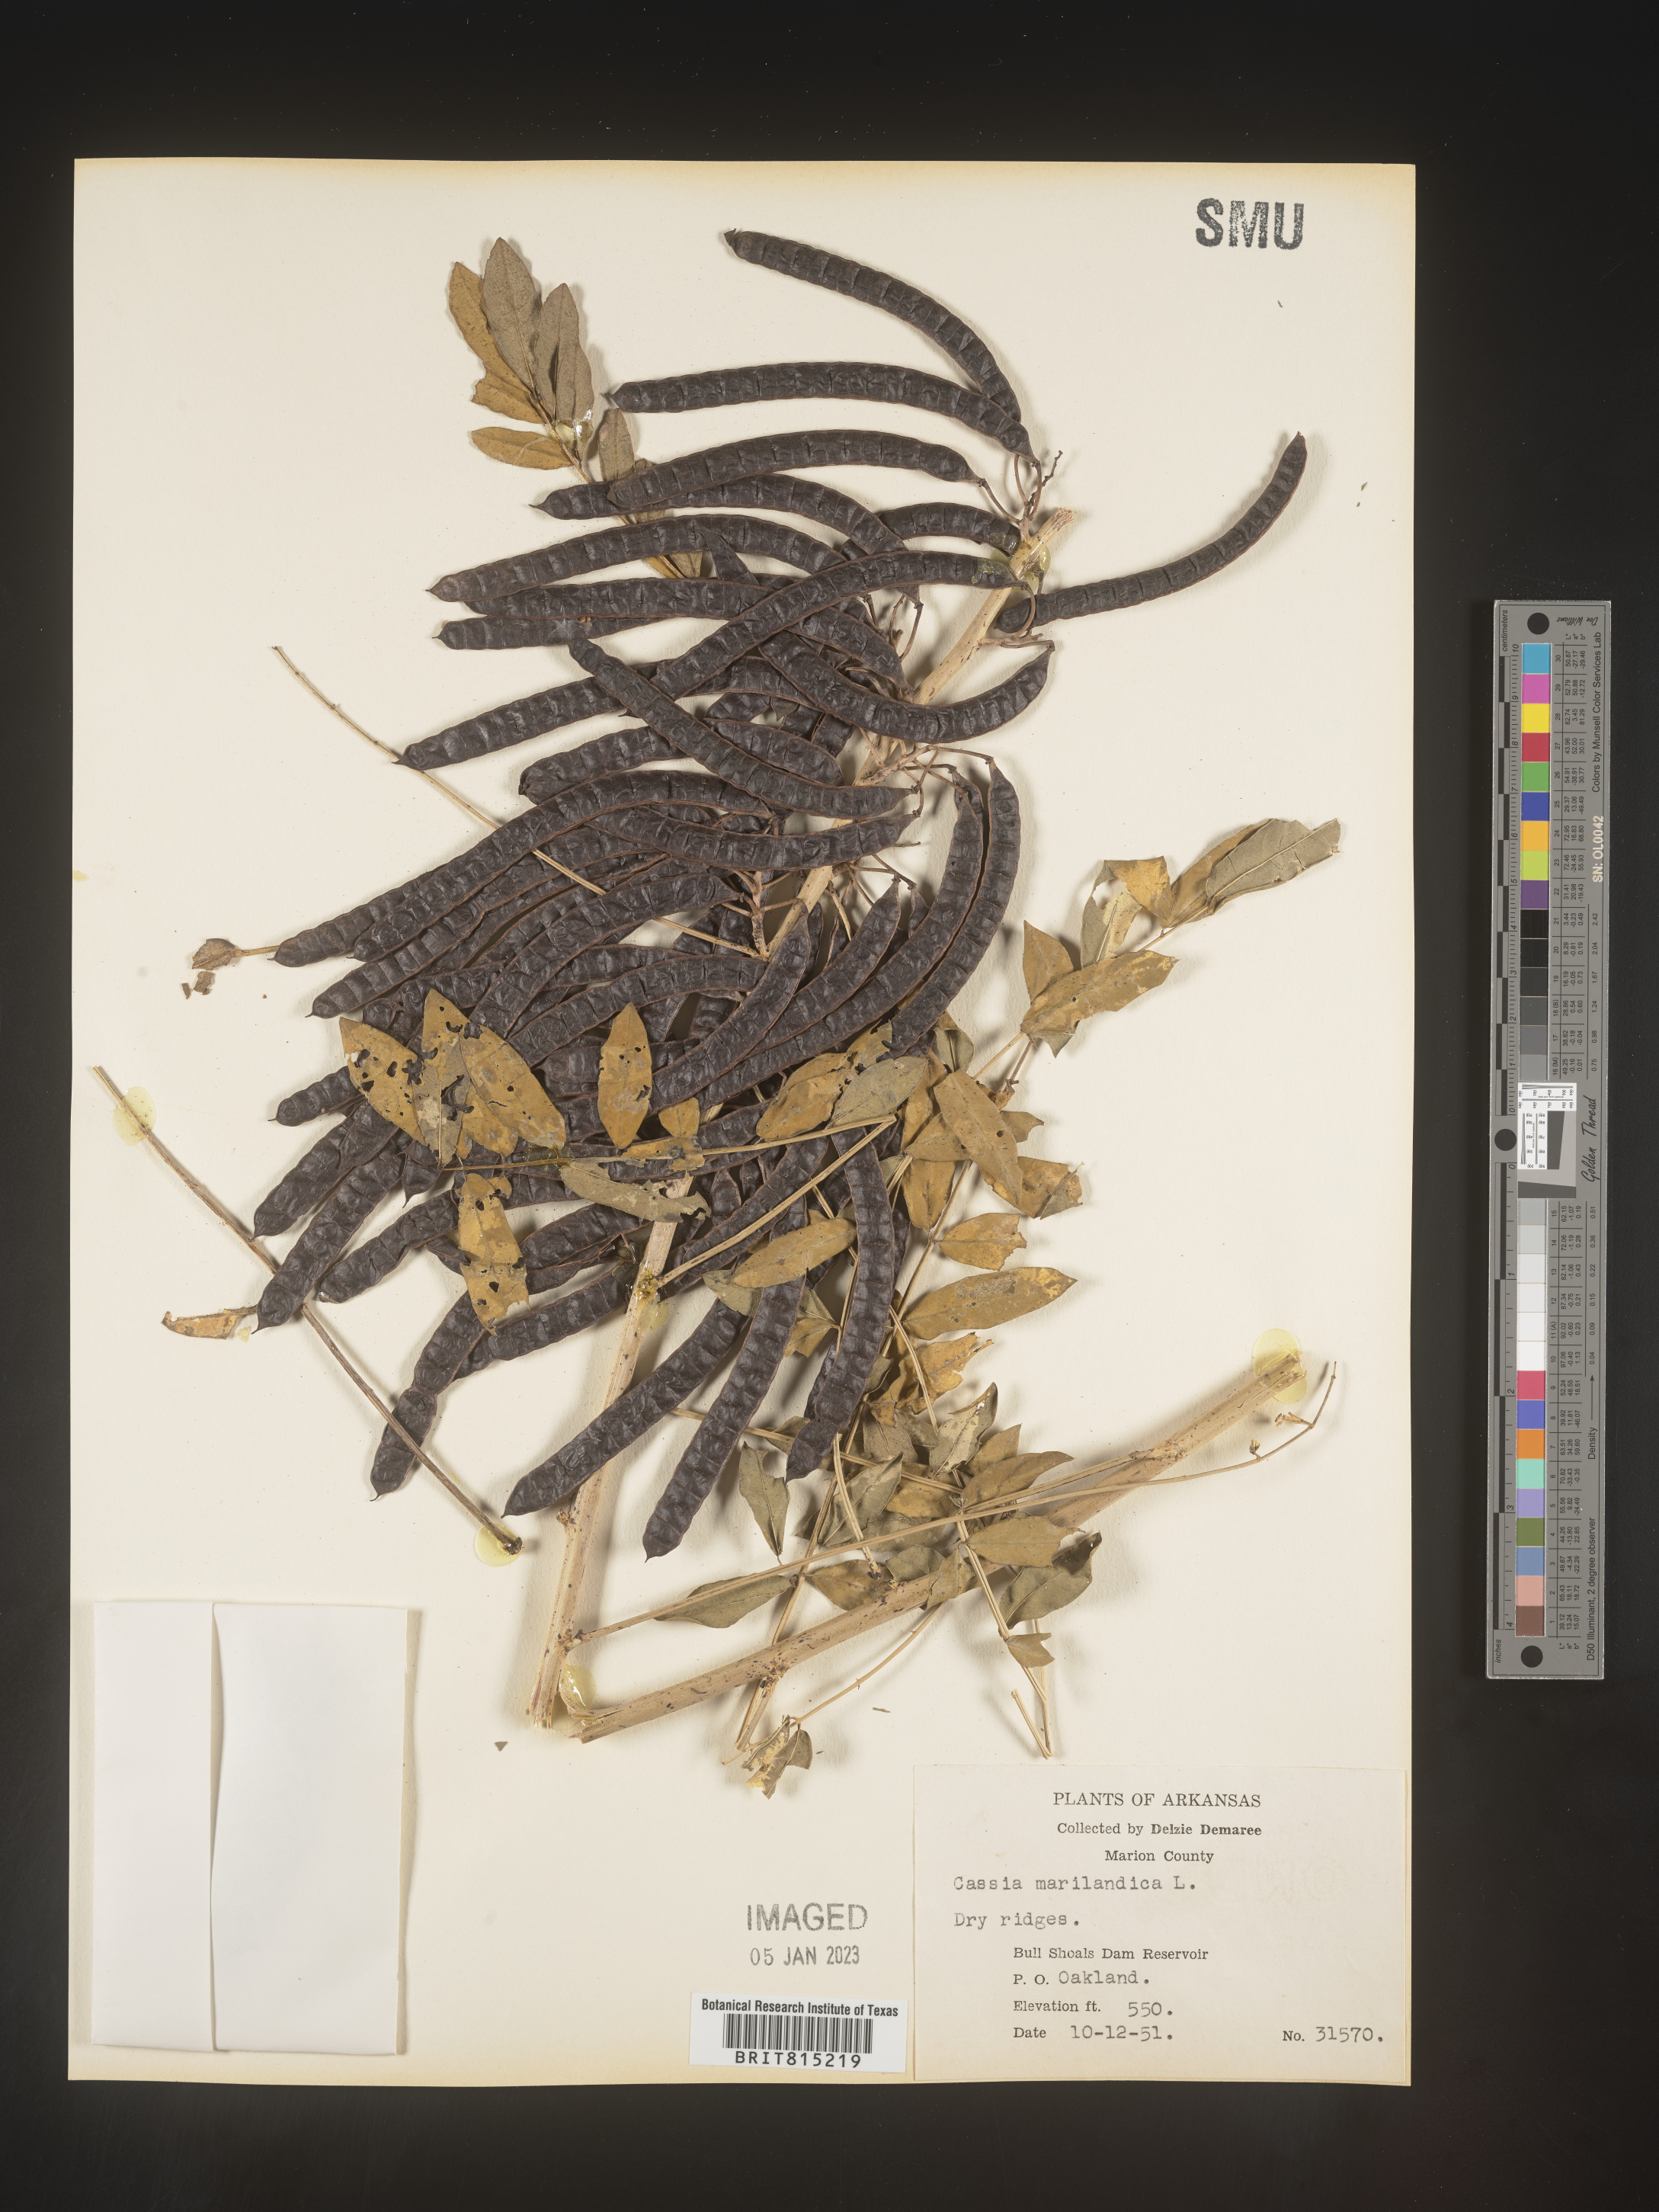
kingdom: Plantae
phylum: Tracheophyta
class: Magnoliopsida
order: Fabales
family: Fabaceae
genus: Senna
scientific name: Senna marilandica
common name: American senna
